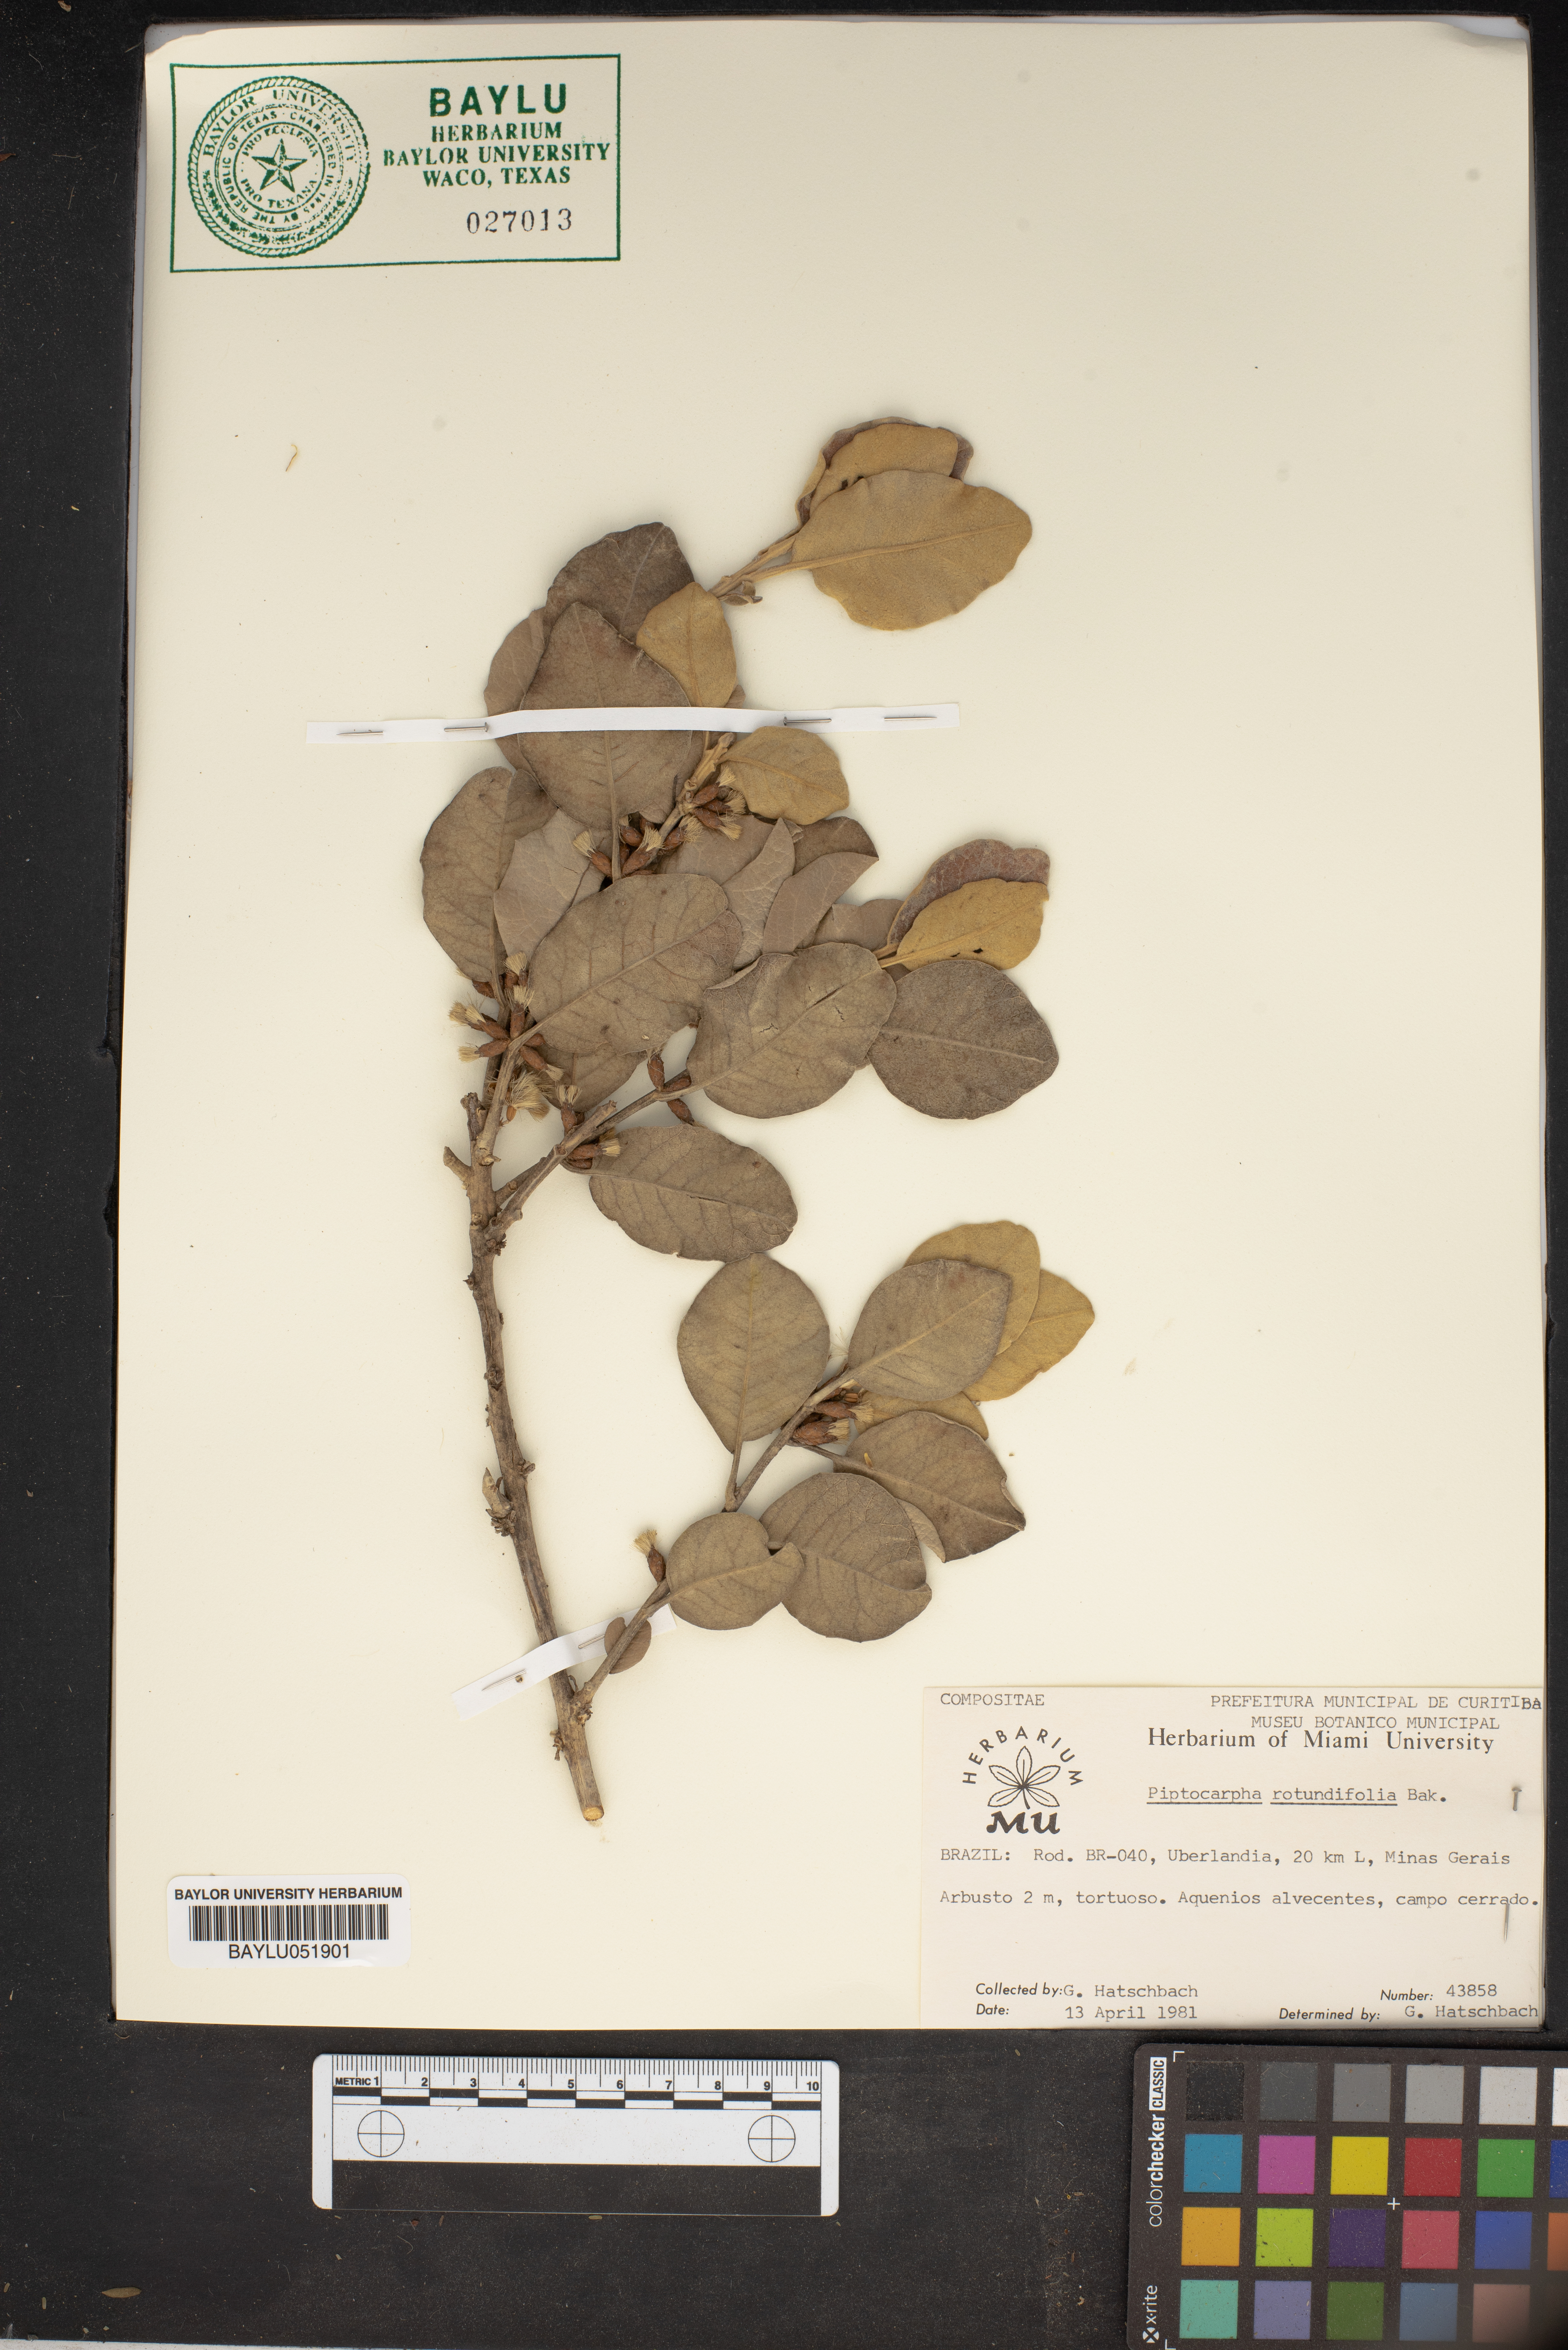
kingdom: Plantae
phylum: Tracheophyta
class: Magnoliopsida
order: Asterales
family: Asteraceae
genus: Piptocarpha
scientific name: Piptocarpha rotundifolia
